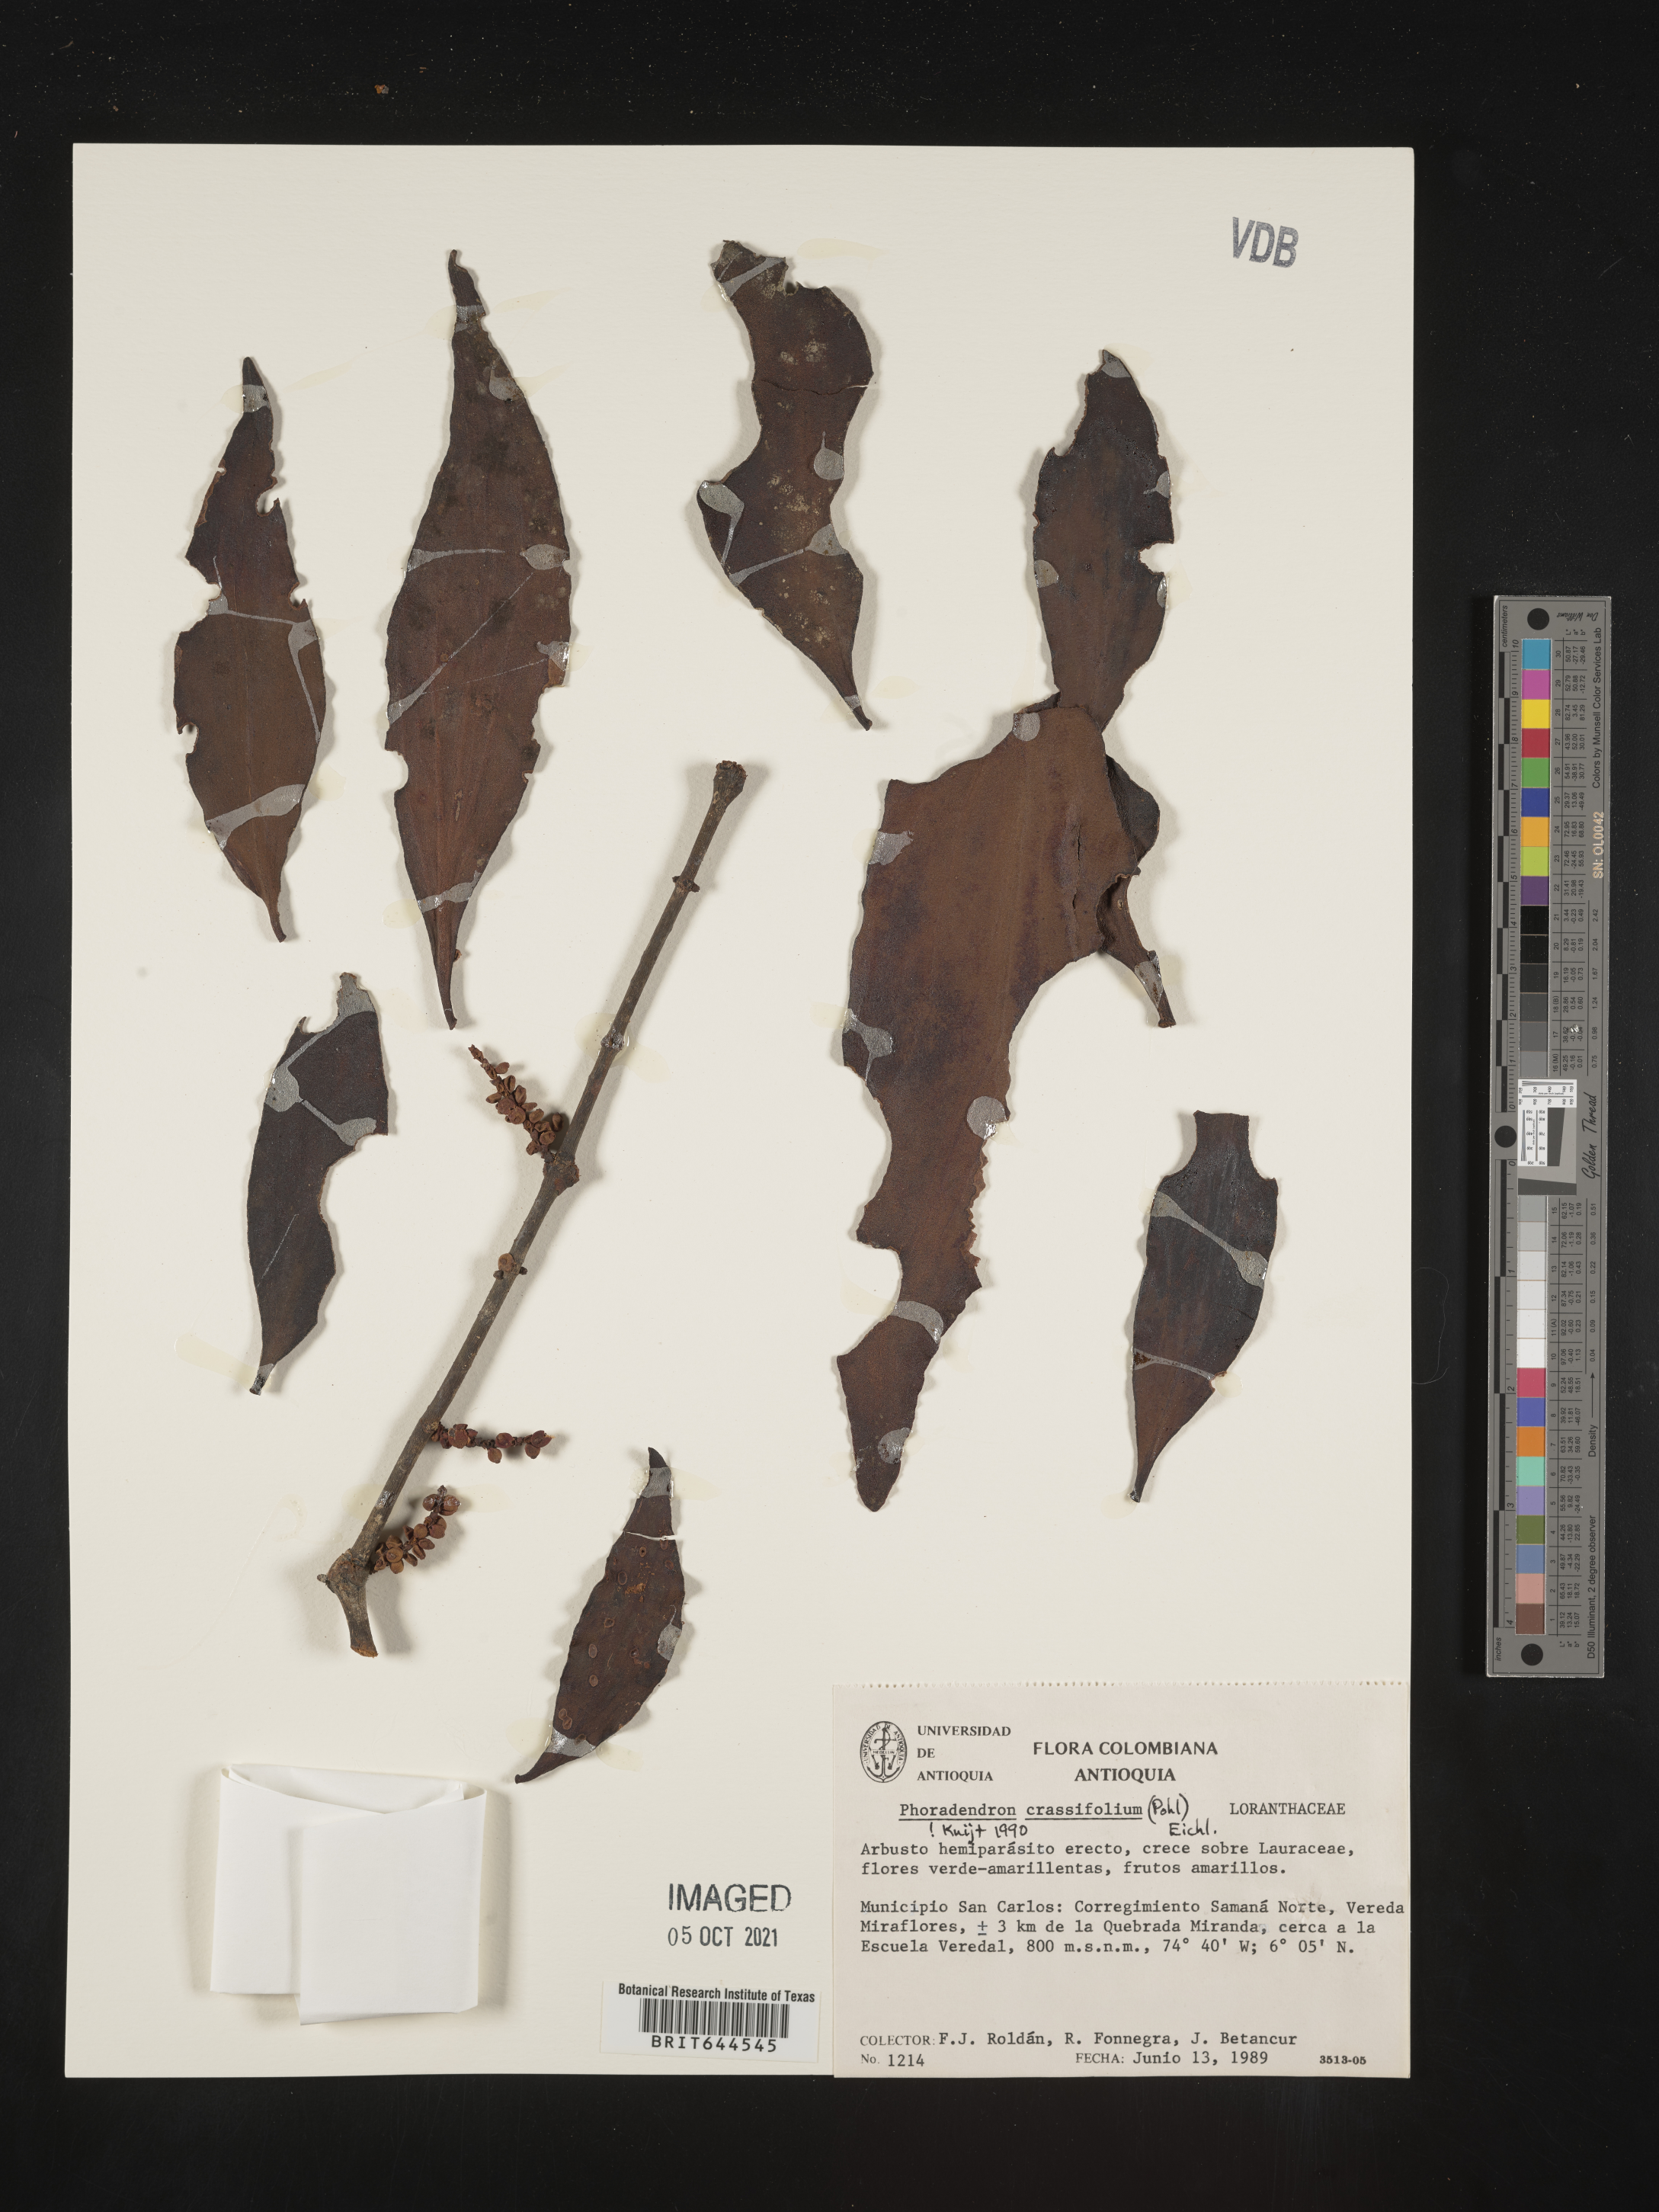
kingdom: Plantae
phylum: Tracheophyta
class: Magnoliopsida
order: Santalales
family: Viscaceae
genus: Phoradendron
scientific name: Phoradendron
